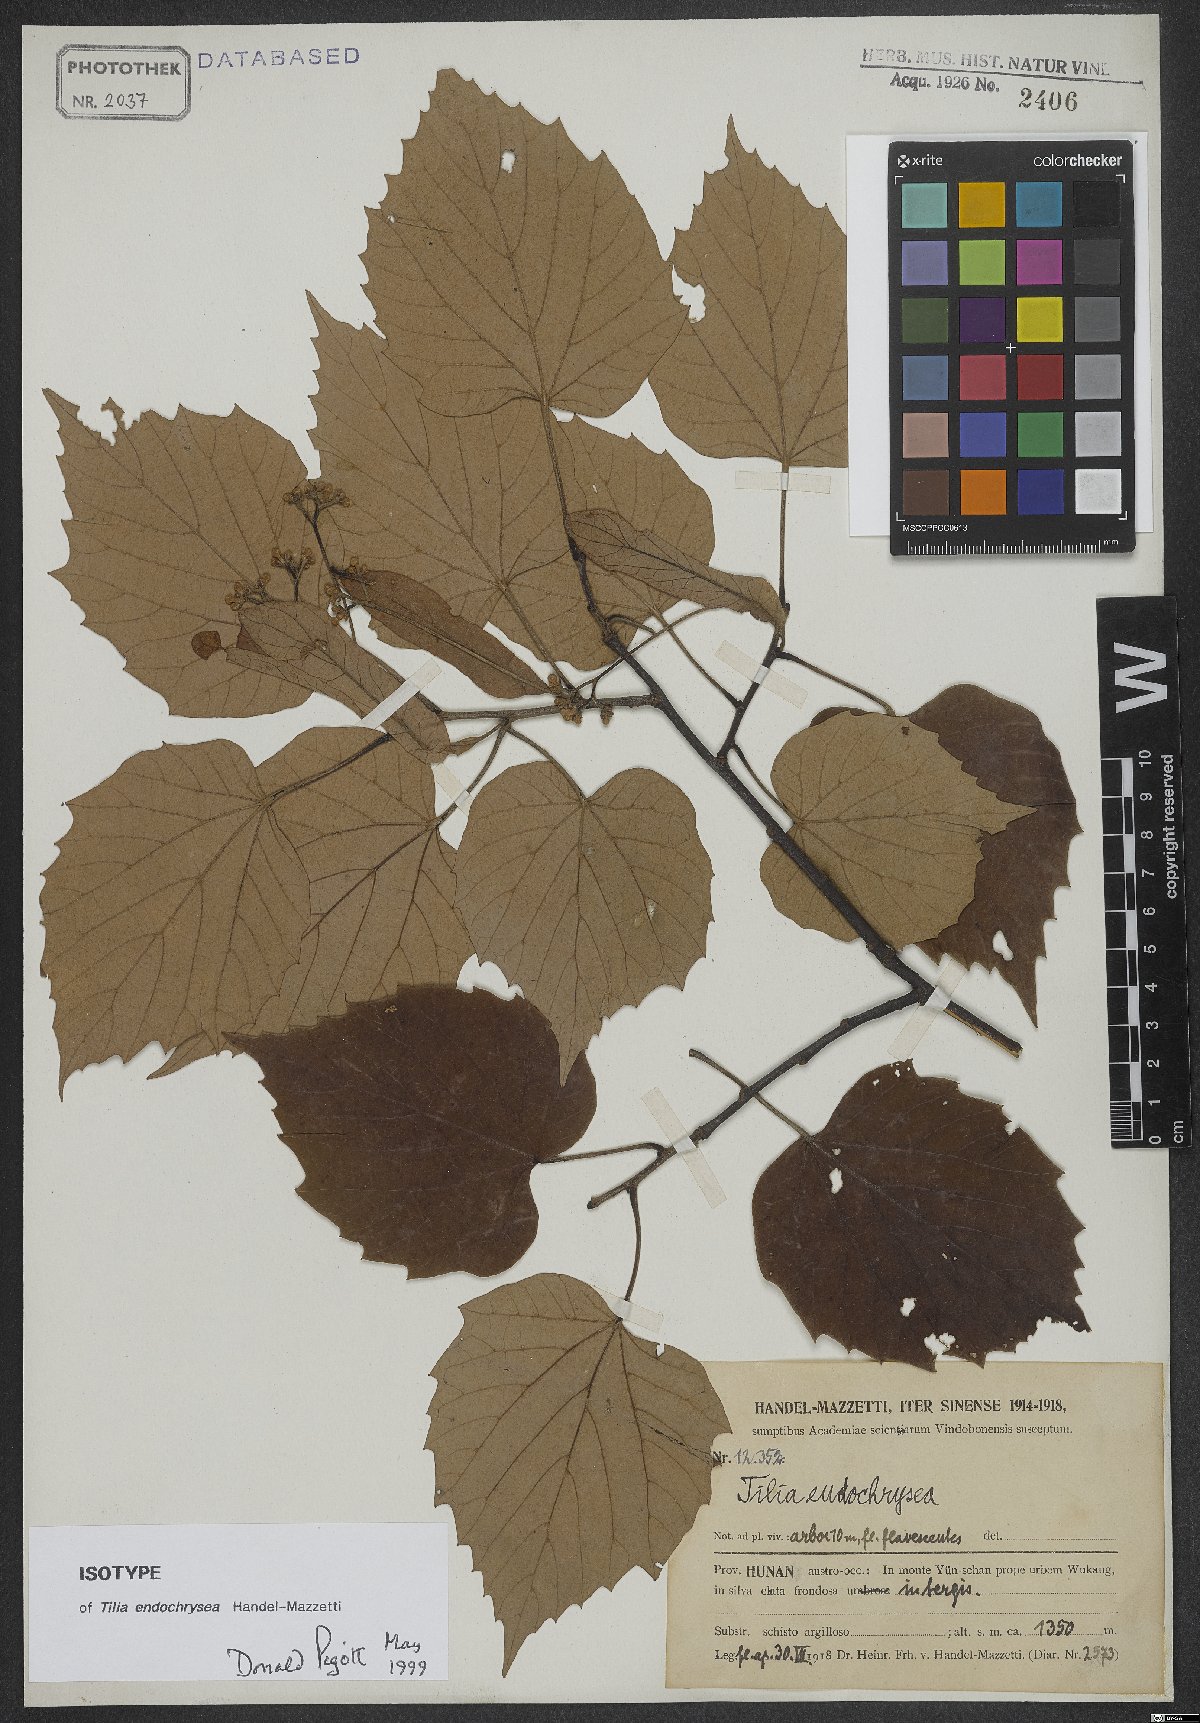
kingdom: Plantae
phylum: Tracheophyta
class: Magnoliopsida
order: Malvales
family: Malvaceae
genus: Tilia
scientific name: Tilia endochrysea
